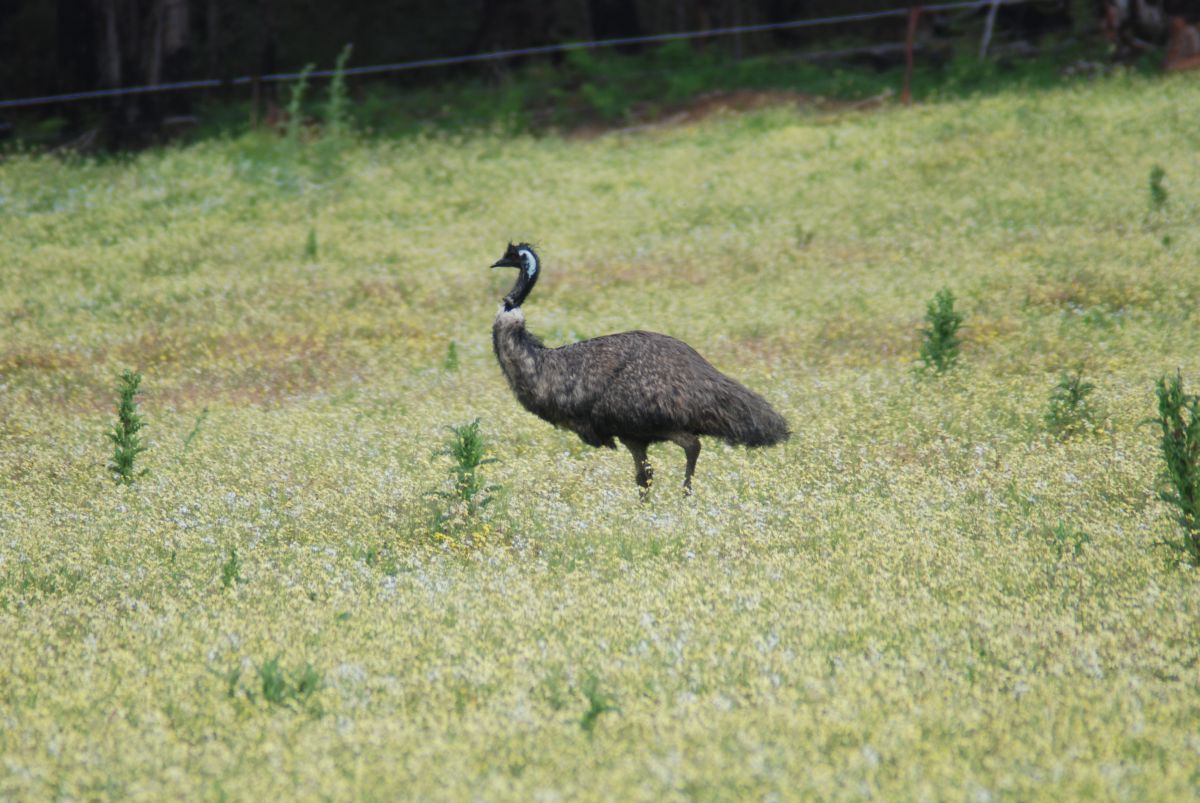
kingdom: Animalia
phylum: Chordata
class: Aves
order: Casuariiformes
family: Dromaiidae
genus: Dromaius
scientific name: Dromaius novaehollandiae
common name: Emu
